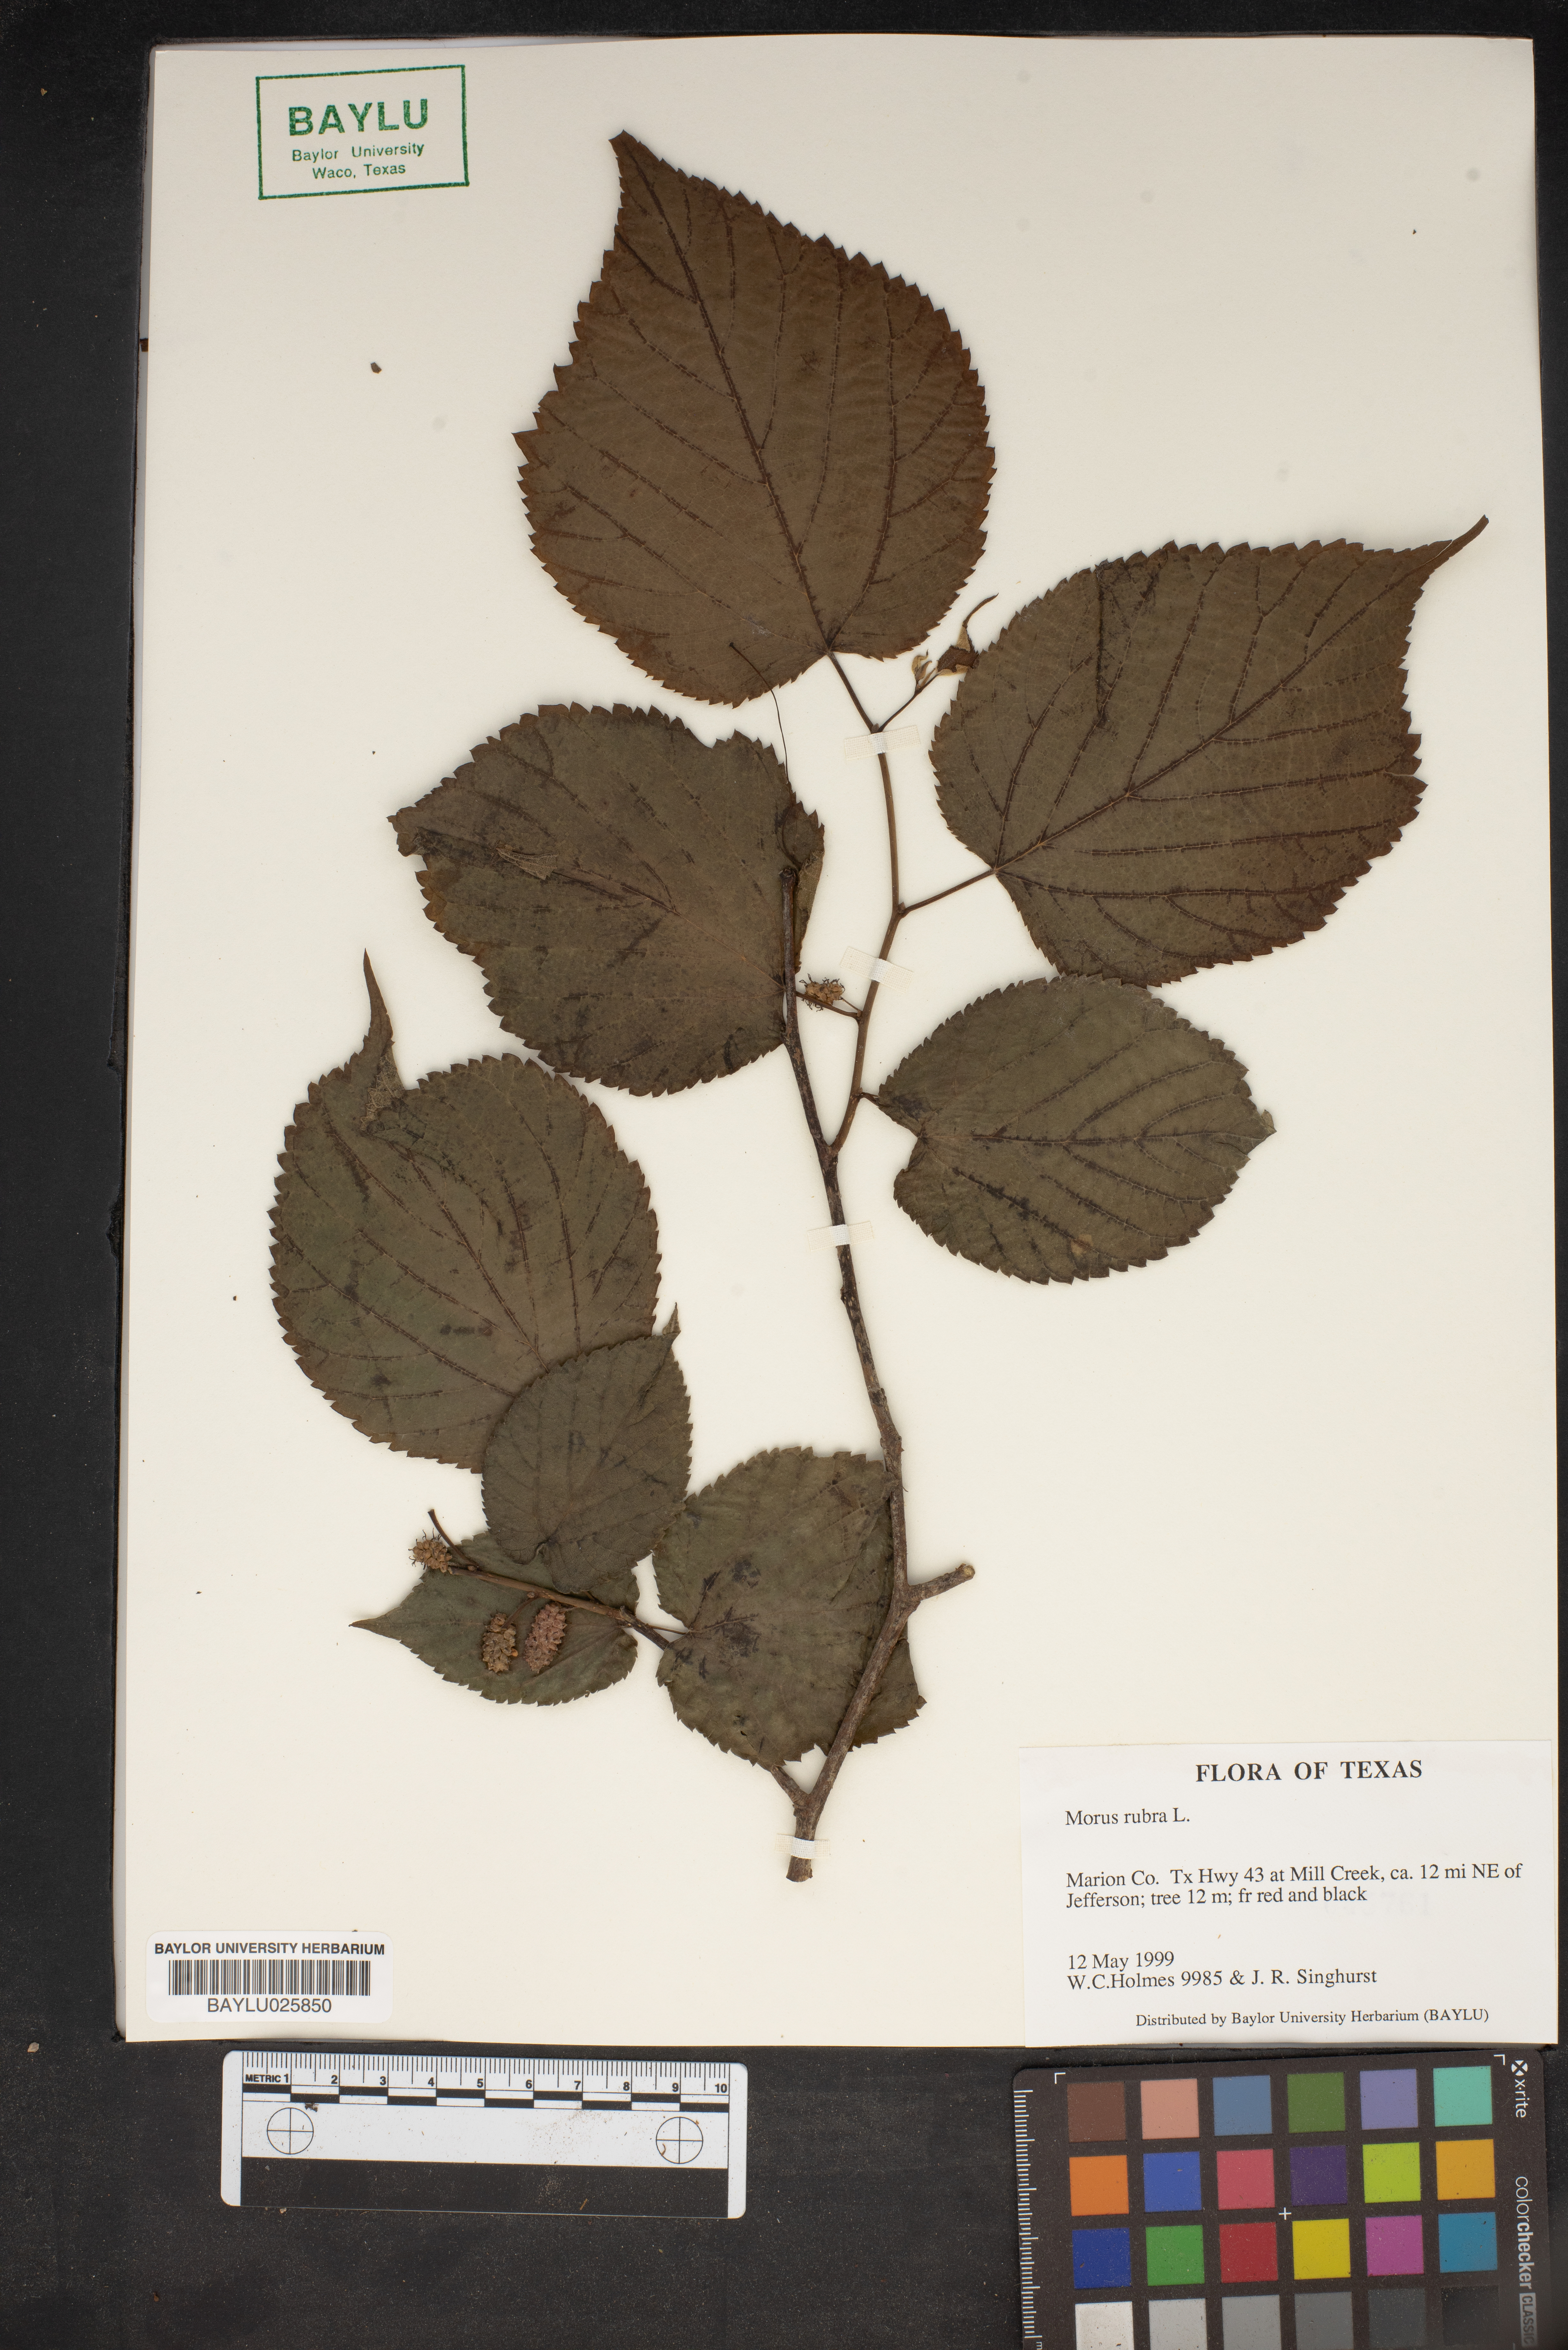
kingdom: Plantae
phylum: Tracheophyta
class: Magnoliopsida
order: Rosales
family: Moraceae
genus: Morus
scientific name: Morus rubra
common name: Red mulberry
